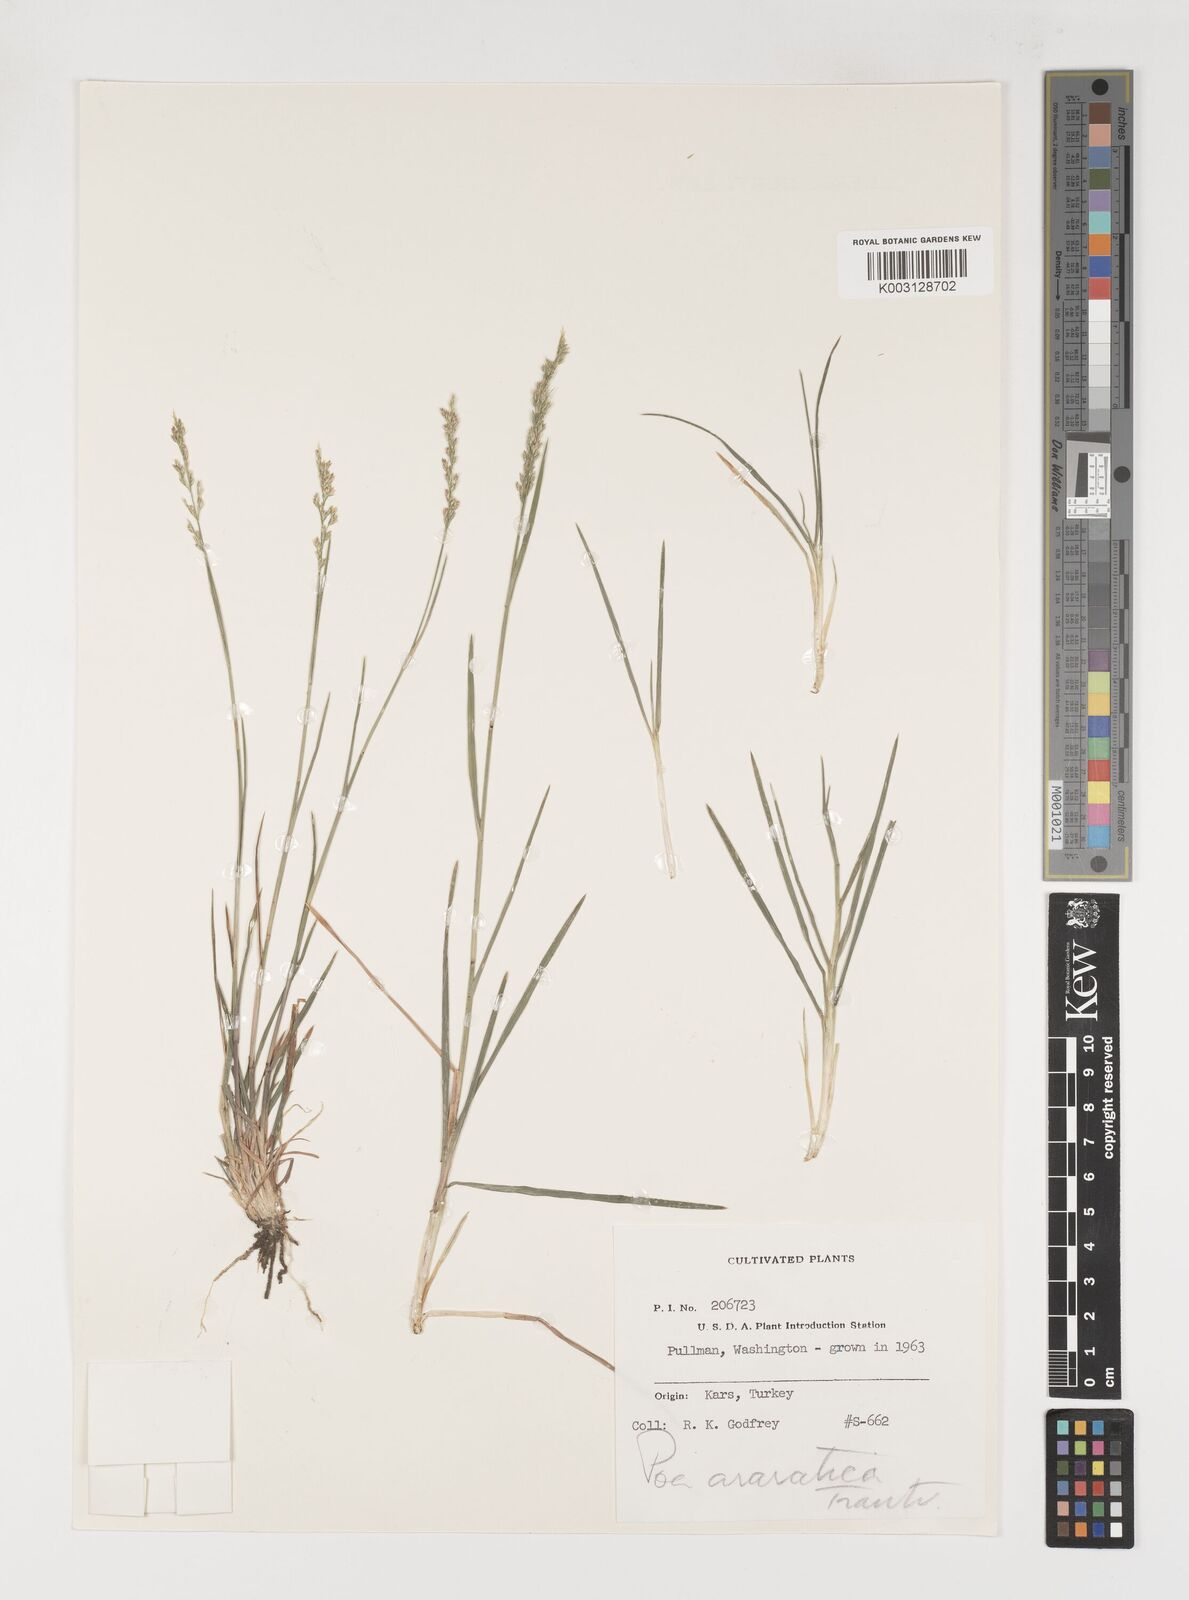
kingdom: Plantae
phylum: Tracheophyta
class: Liliopsida
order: Poales
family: Poaceae
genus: Poa
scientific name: Poa araratica
